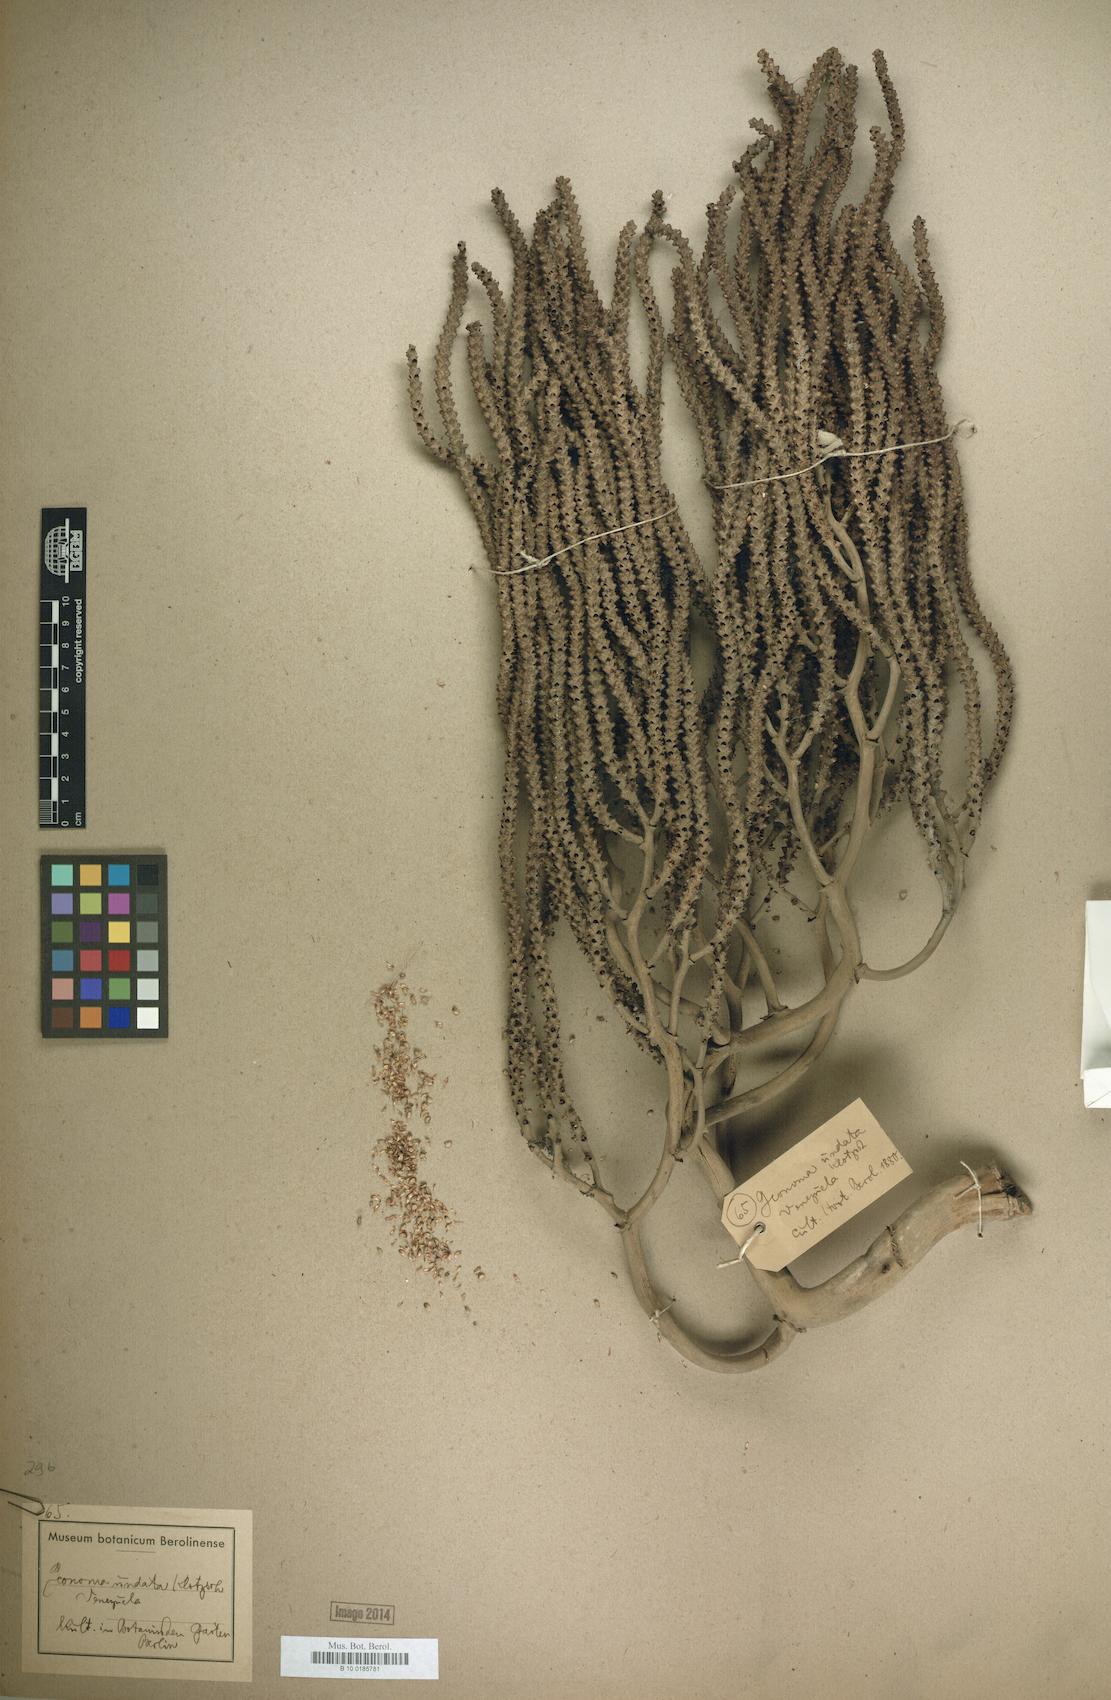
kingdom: Plantae
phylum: Tracheophyta
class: Liliopsida
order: Arecales
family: Arecaceae
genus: Geonoma
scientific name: Geonoma undata
